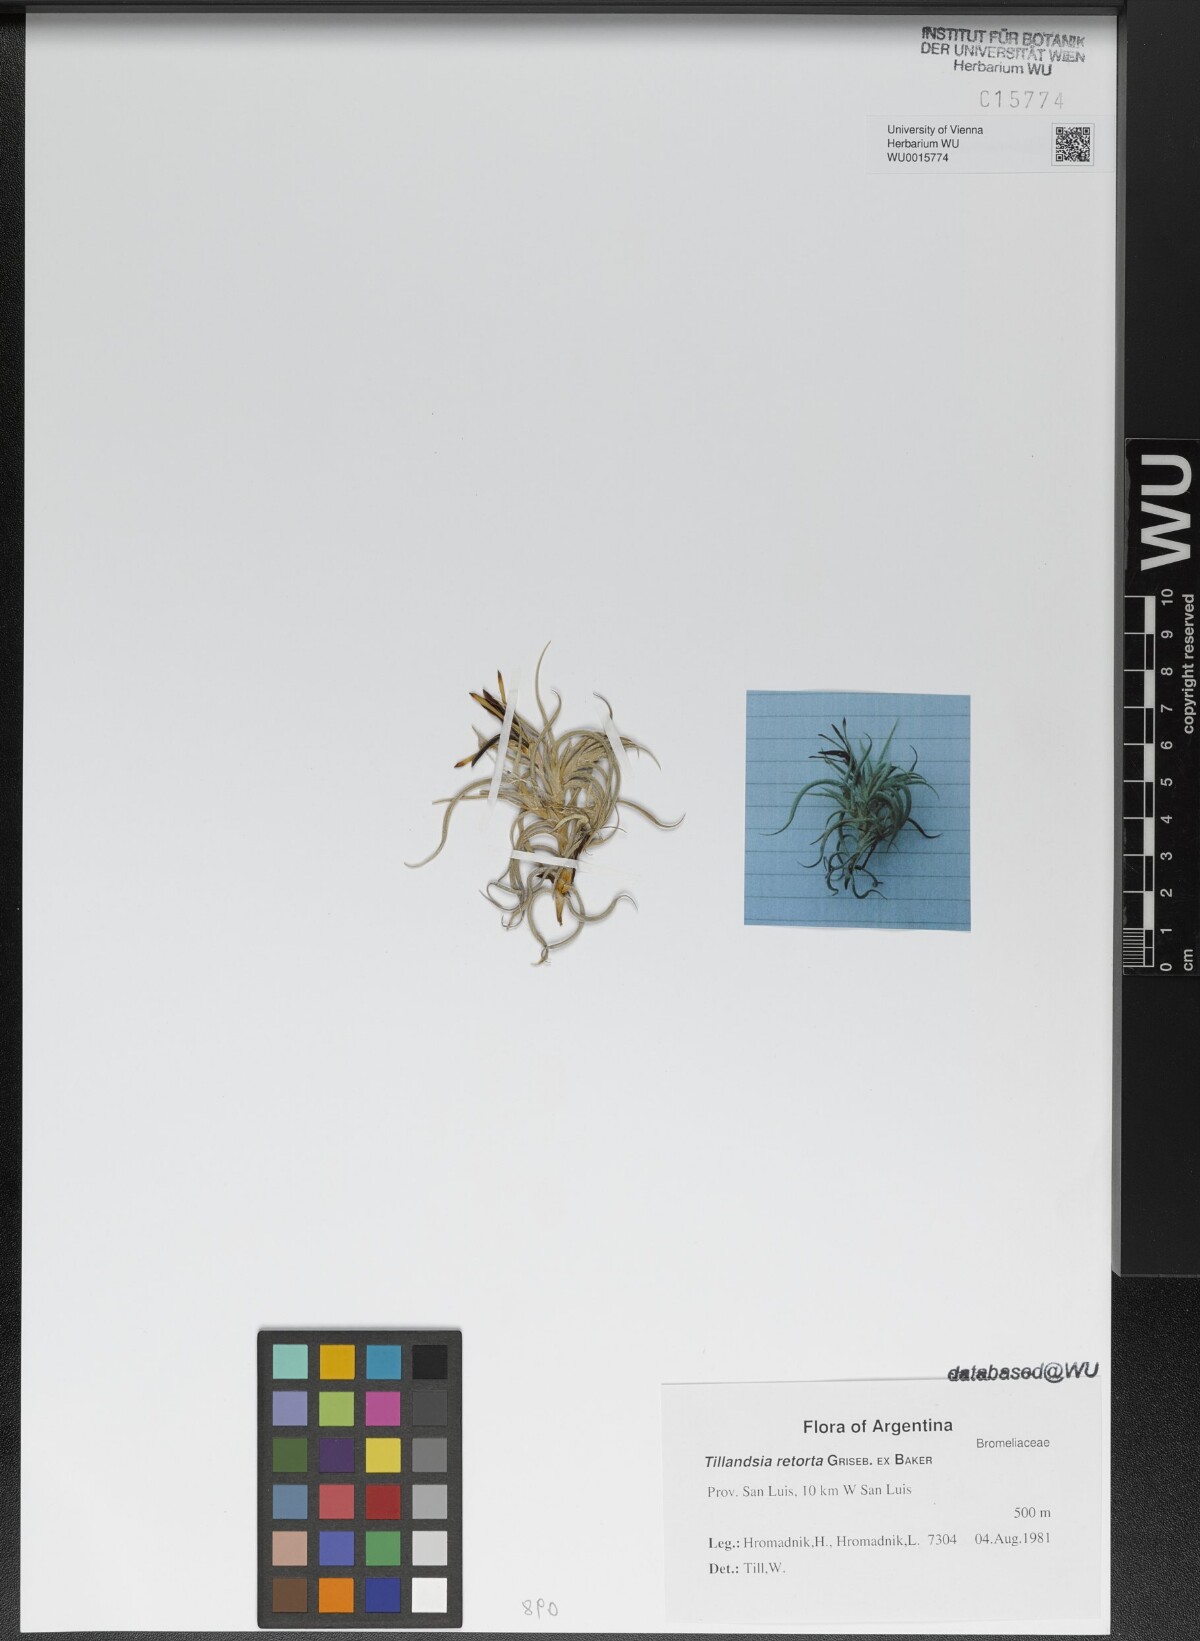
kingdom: Plantae
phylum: Tracheophyta
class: Liliopsida
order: Poales
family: Bromeliaceae
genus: Tillandsia
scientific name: Tillandsia retorta
